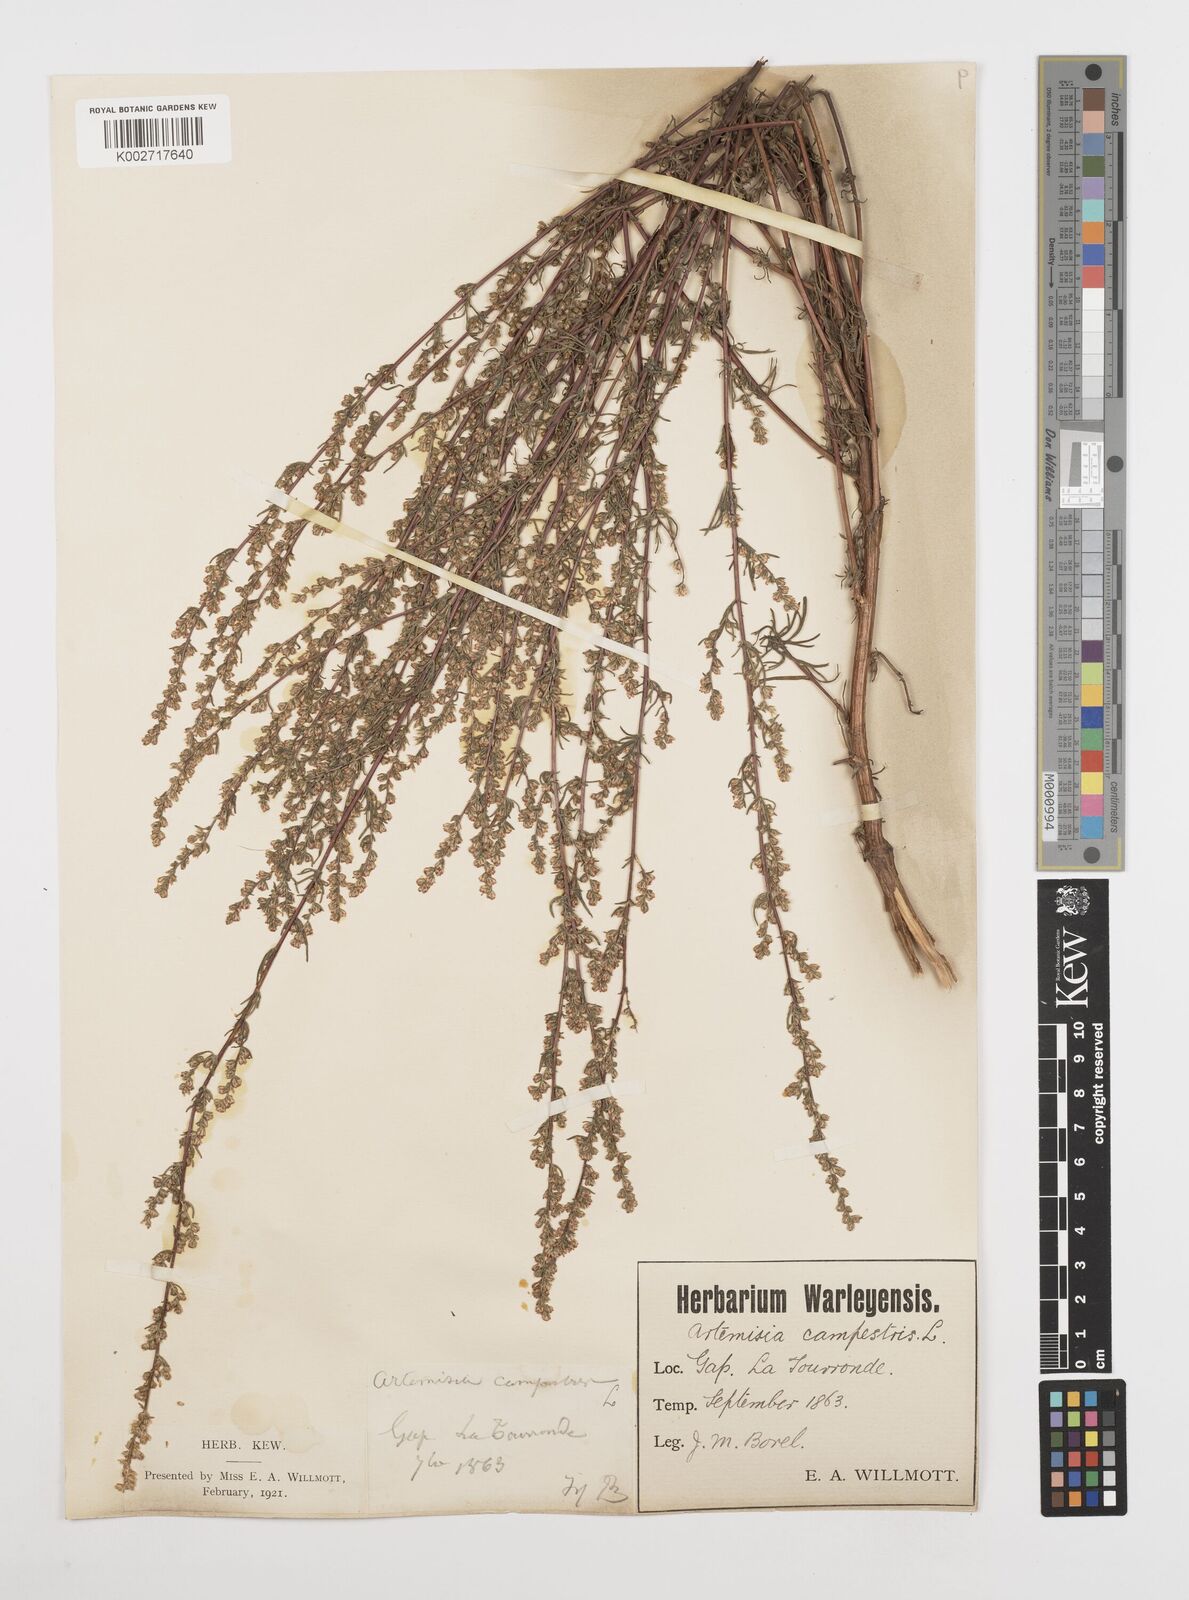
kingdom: Plantae
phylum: Tracheophyta
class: Magnoliopsida
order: Asterales
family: Asteraceae
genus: Artemisia
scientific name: Artemisia campestris
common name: Field wormwood
